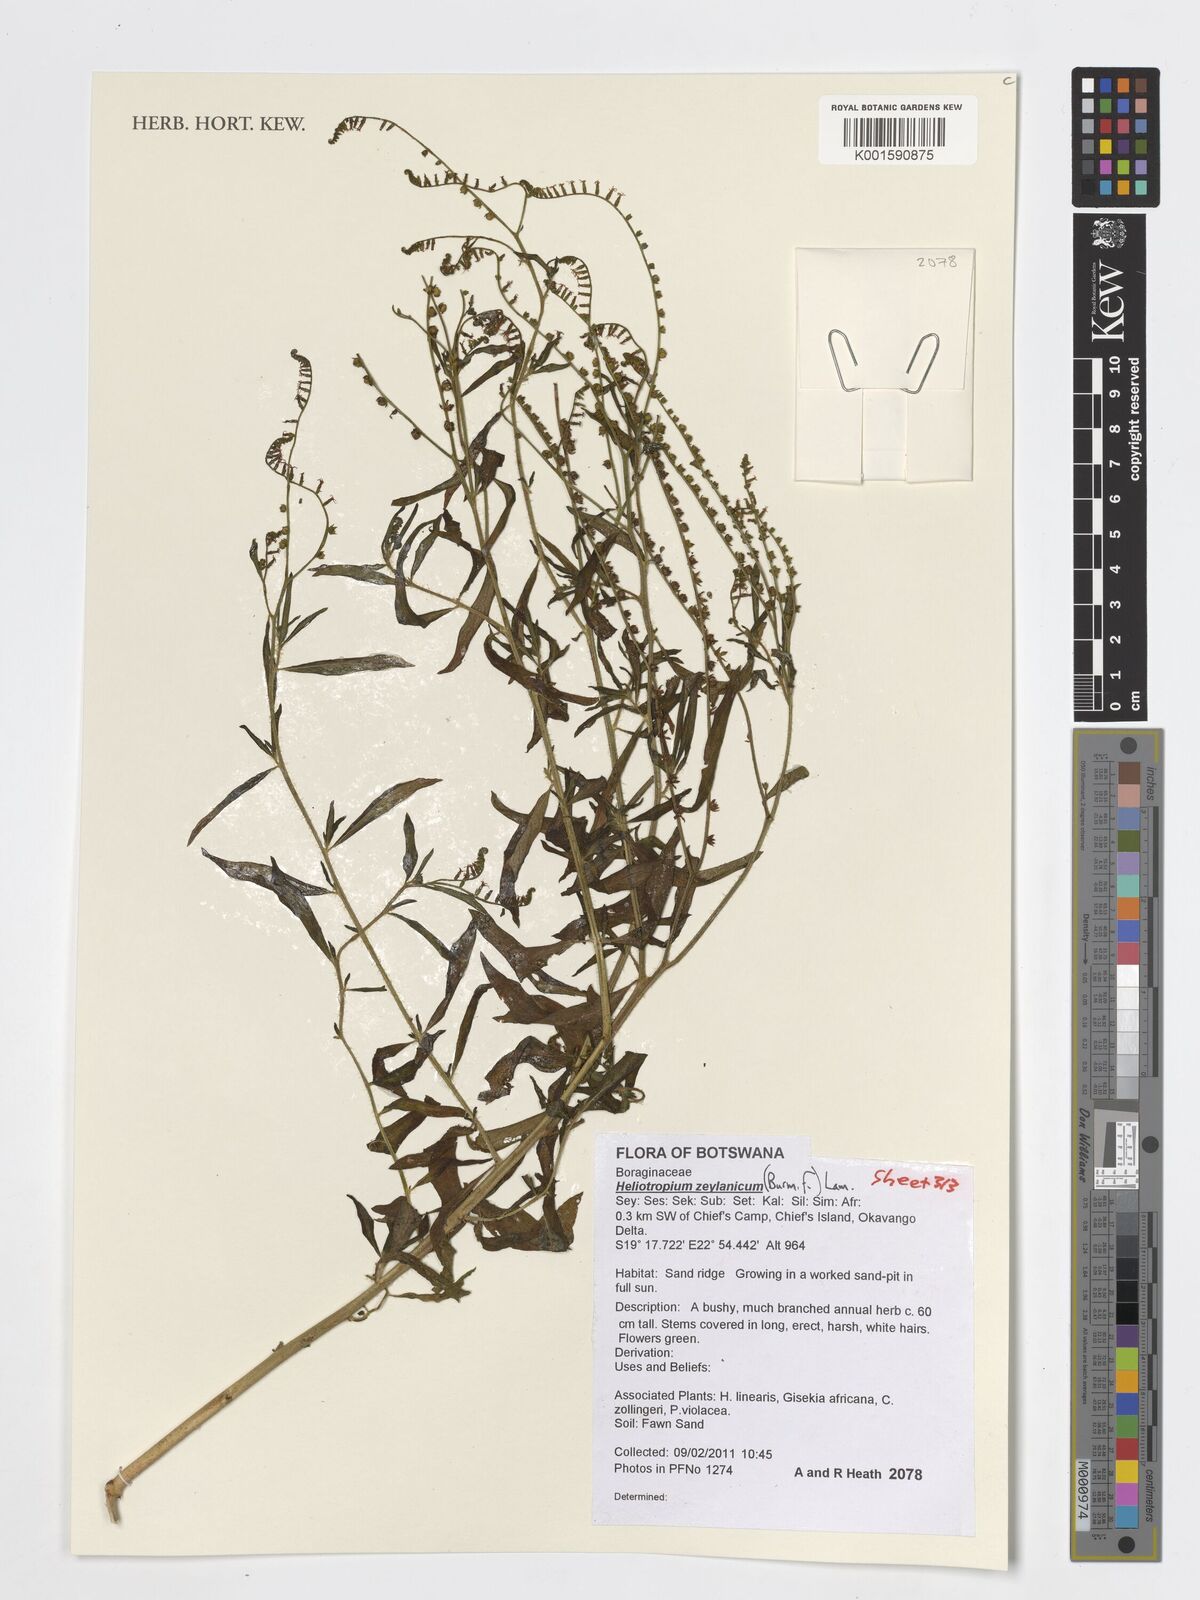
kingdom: Plantae
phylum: Tracheophyta
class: Magnoliopsida
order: Boraginales
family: Heliotropiaceae
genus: Heliotropium
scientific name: Heliotropium zeylanicum
